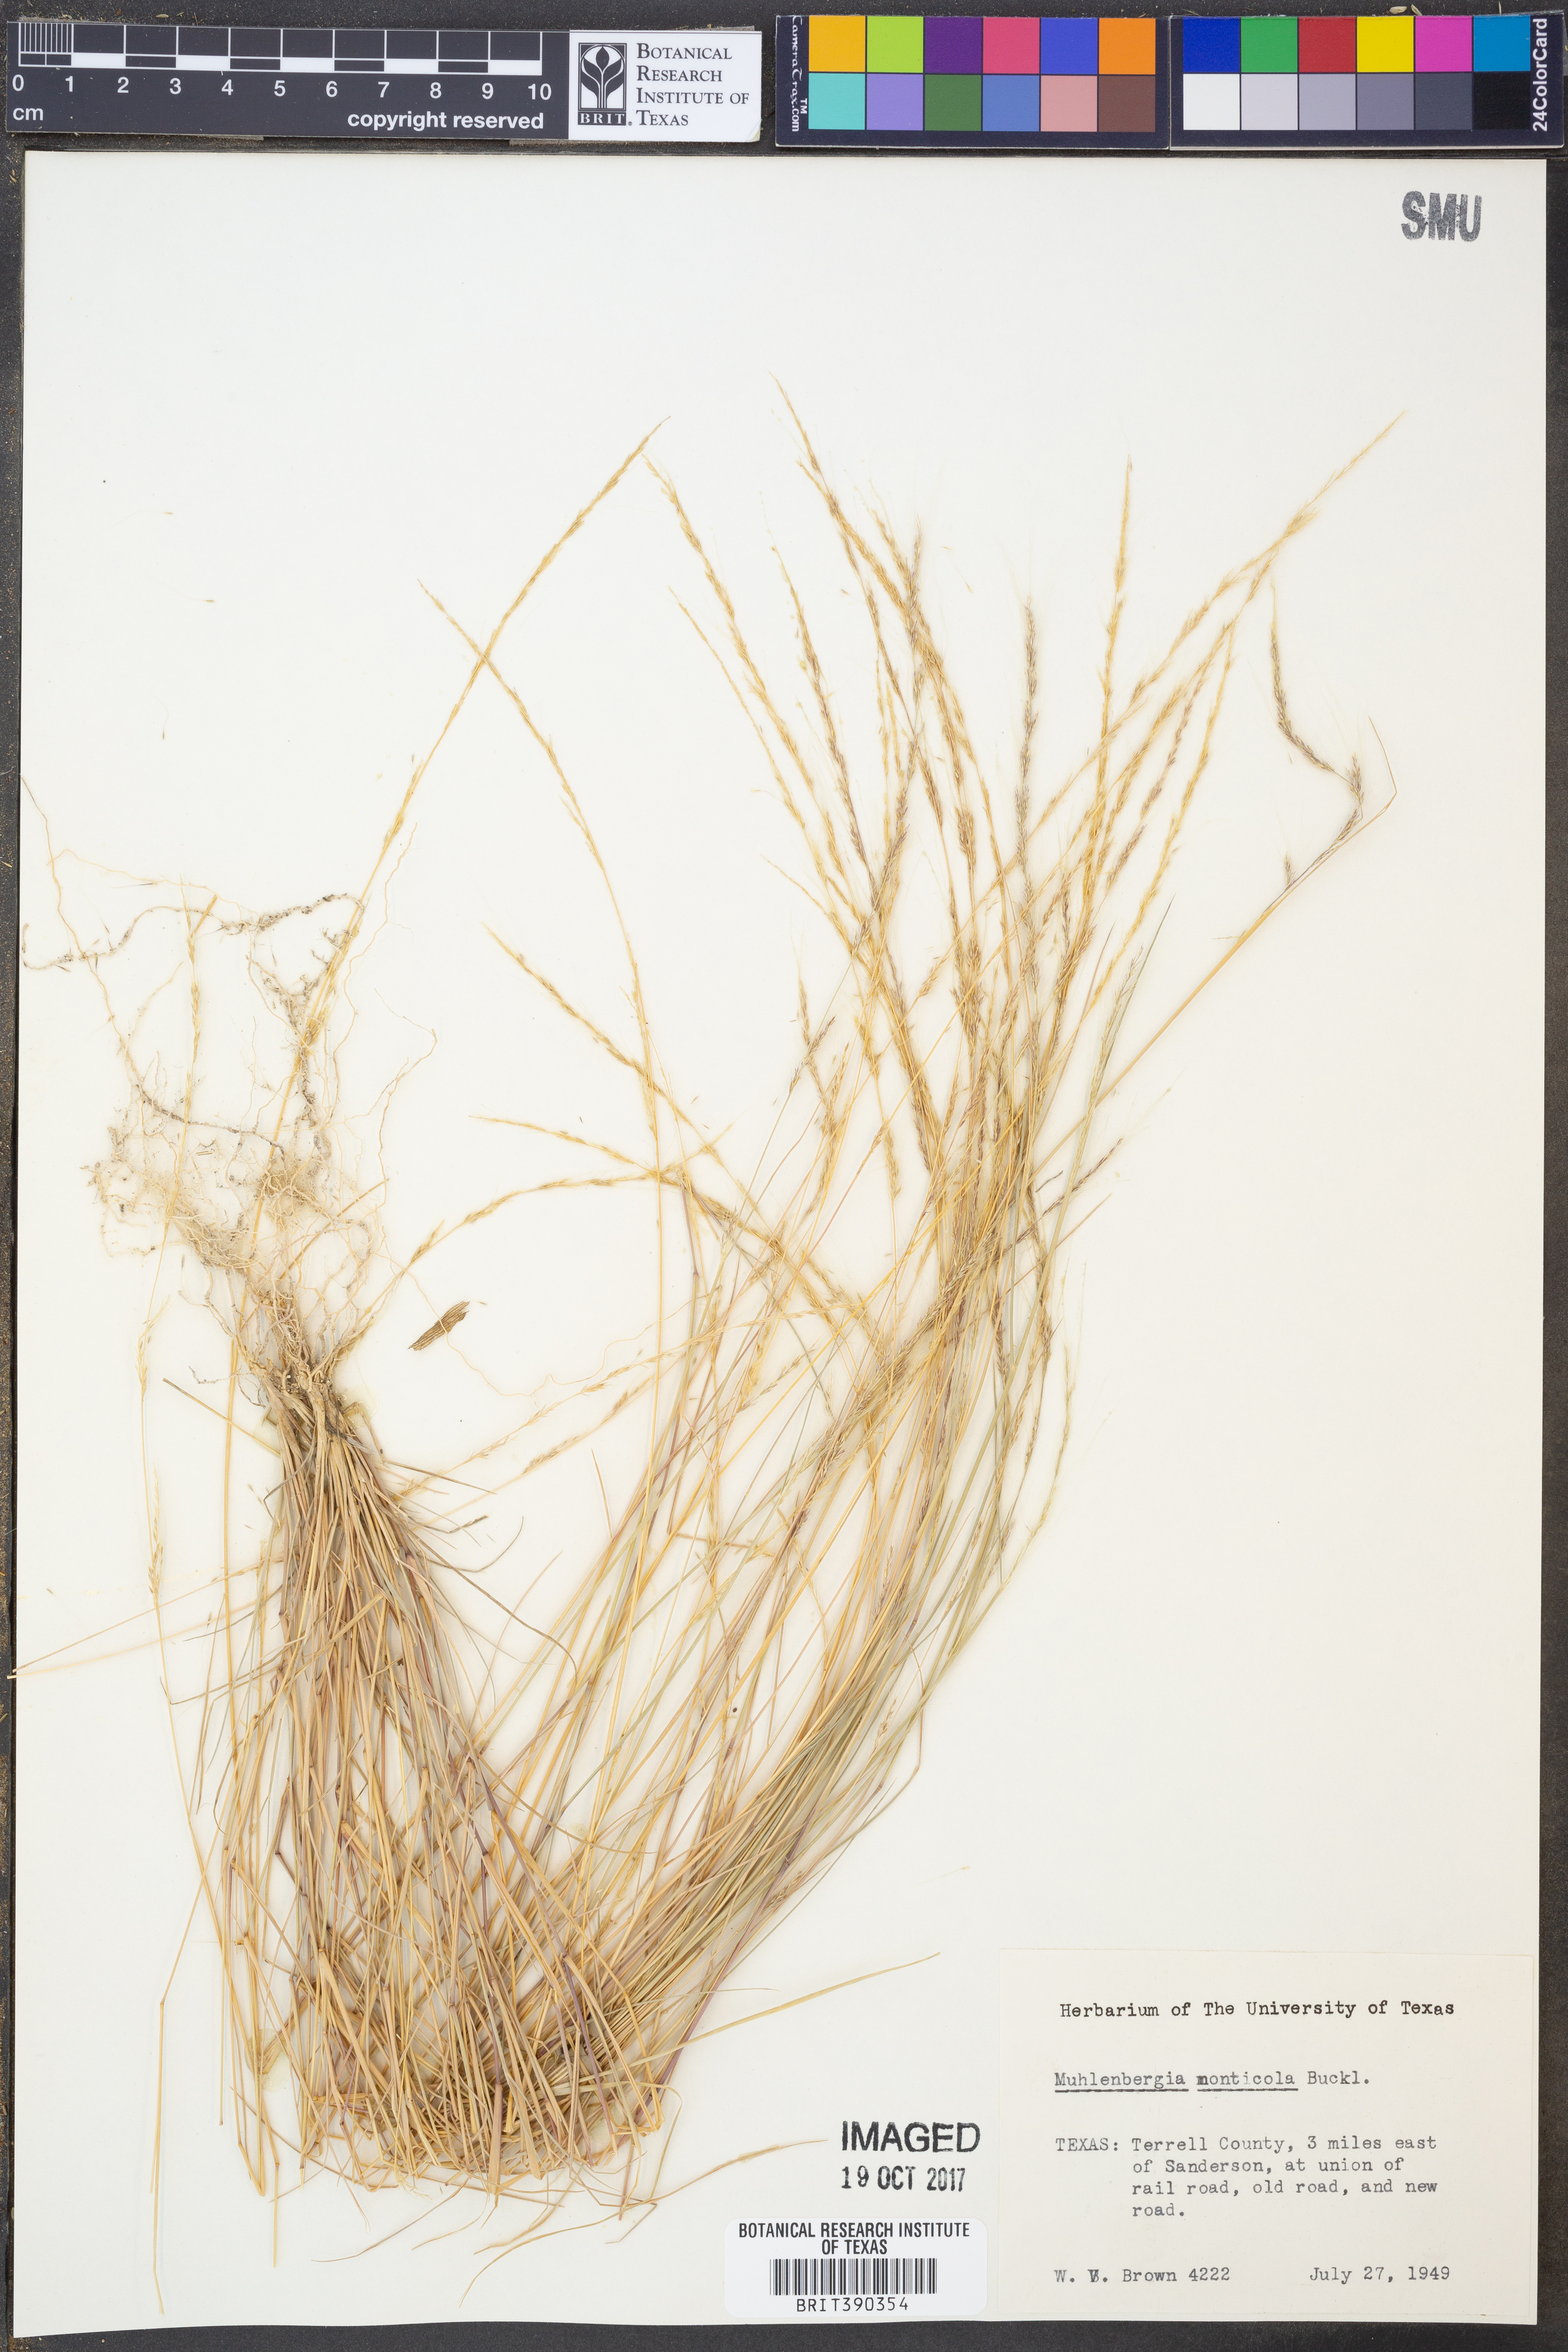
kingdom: Plantae
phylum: Tracheophyta
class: Liliopsida
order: Poales
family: Poaceae
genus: Muhlenbergia
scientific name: Muhlenbergia tenuifolia
